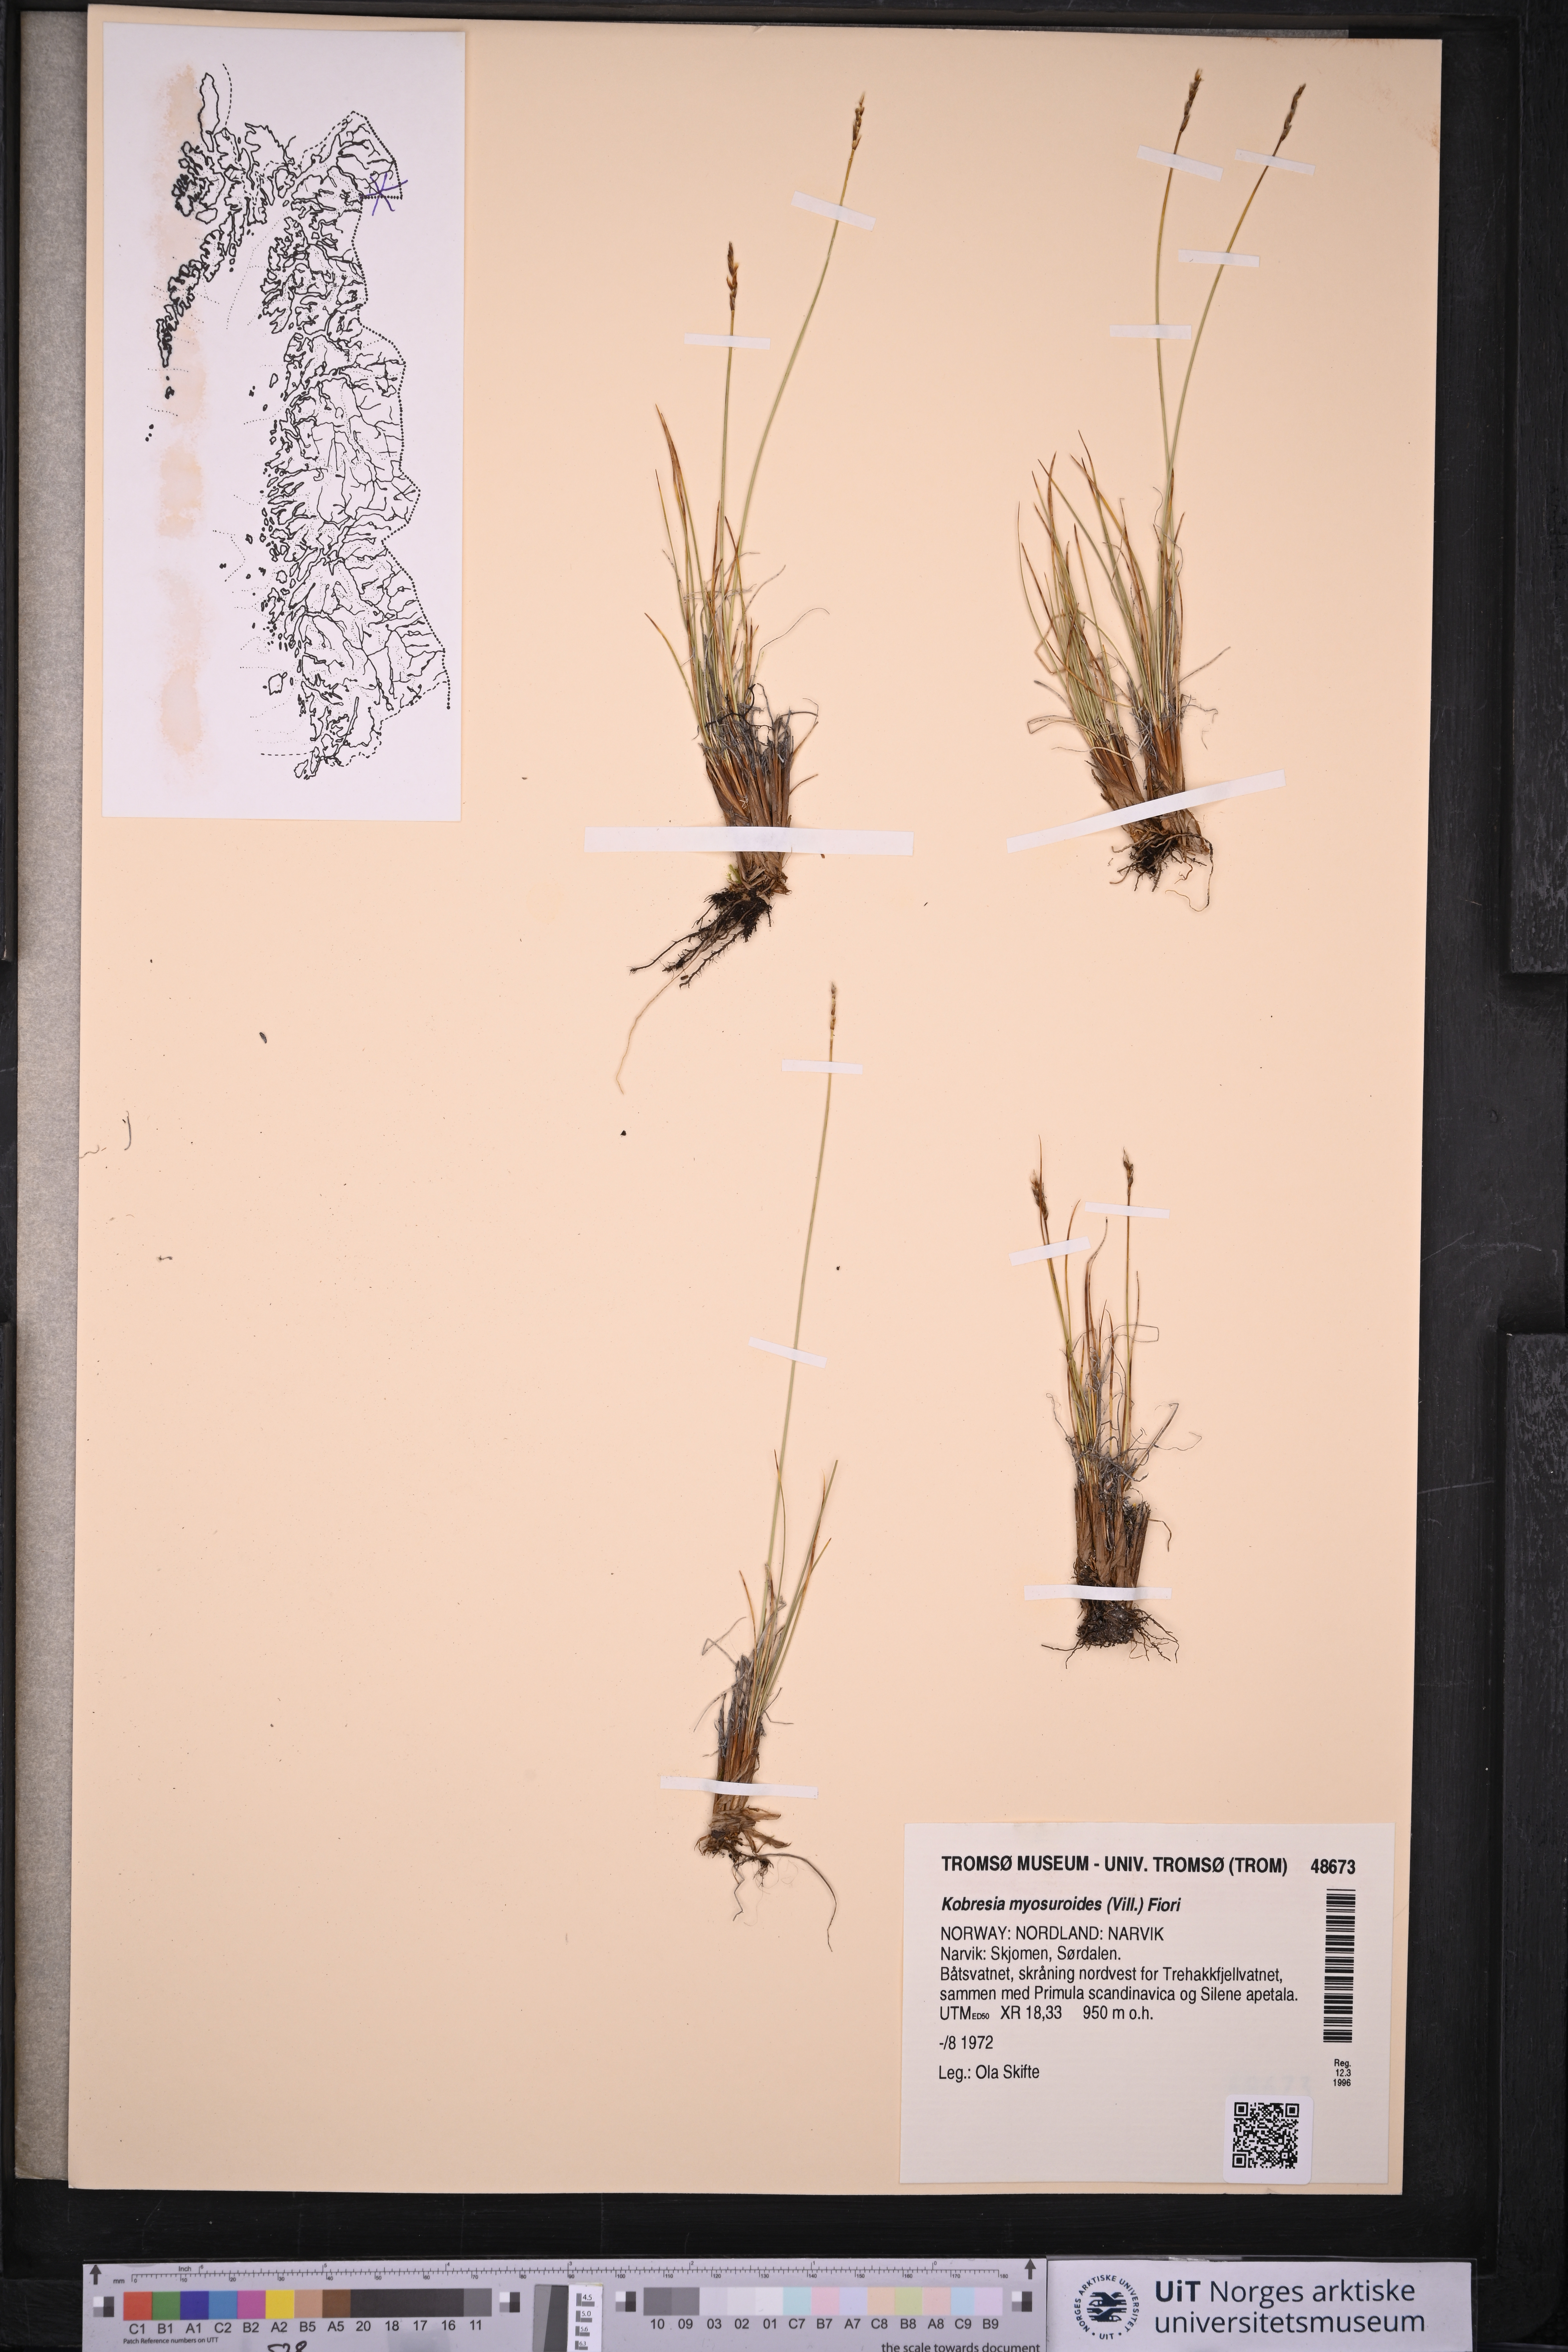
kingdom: Plantae
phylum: Tracheophyta
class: Liliopsida
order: Poales
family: Cyperaceae
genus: Carex
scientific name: Carex myosuroides
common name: Bellard's bog sedge
